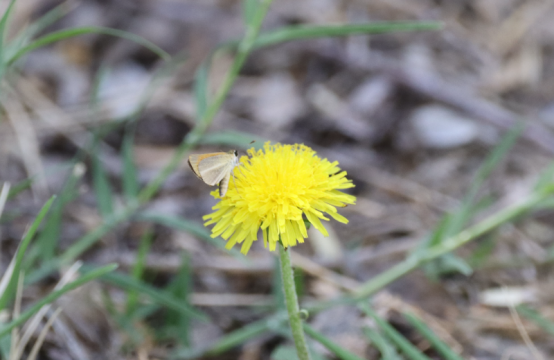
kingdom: Animalia
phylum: Arthropoda
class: Insecta
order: Lepidoptera
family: Hesperiidae
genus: Ancyloxypha
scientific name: Ancyloxypha arene
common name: Tropical Least Skipper
